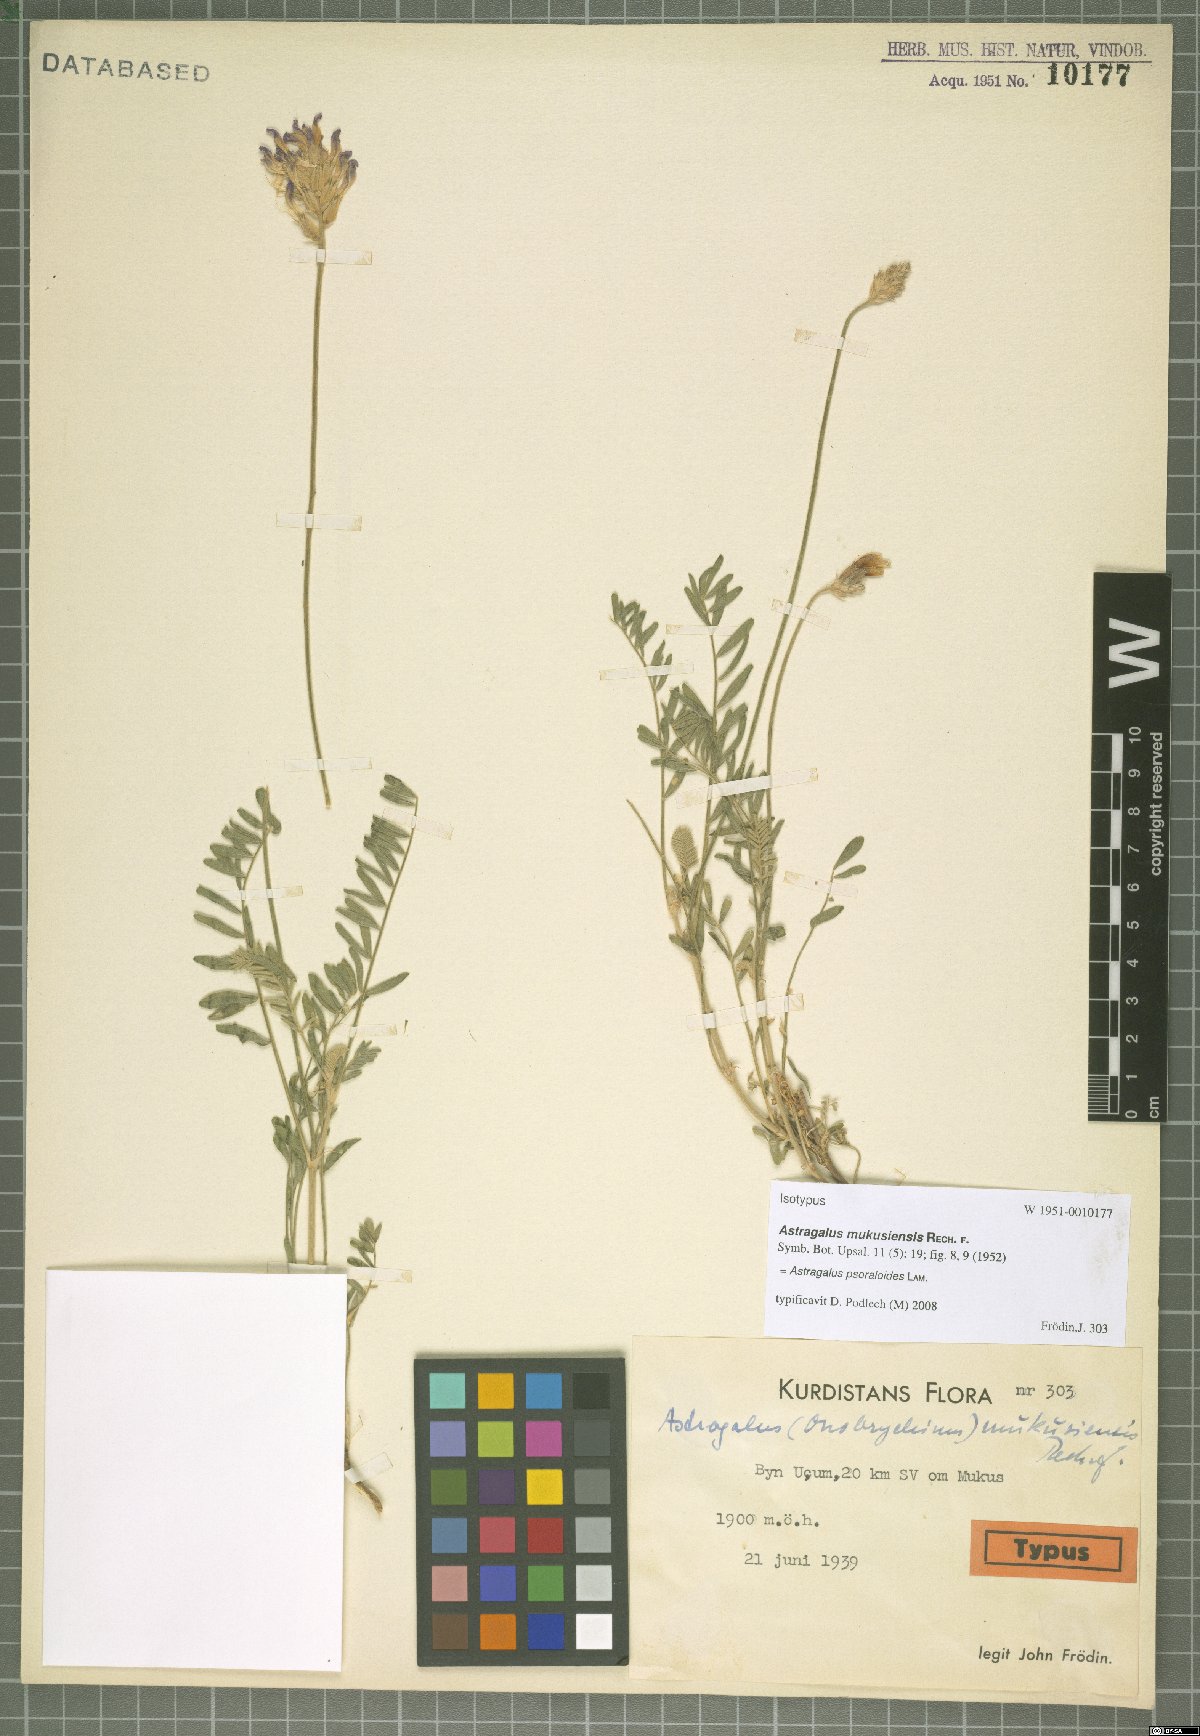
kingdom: Plantae
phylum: Tracheophyta
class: Magnoliopsida
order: Fabales
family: Fabaceae
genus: Astragalus
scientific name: Astragalus psoraloides
